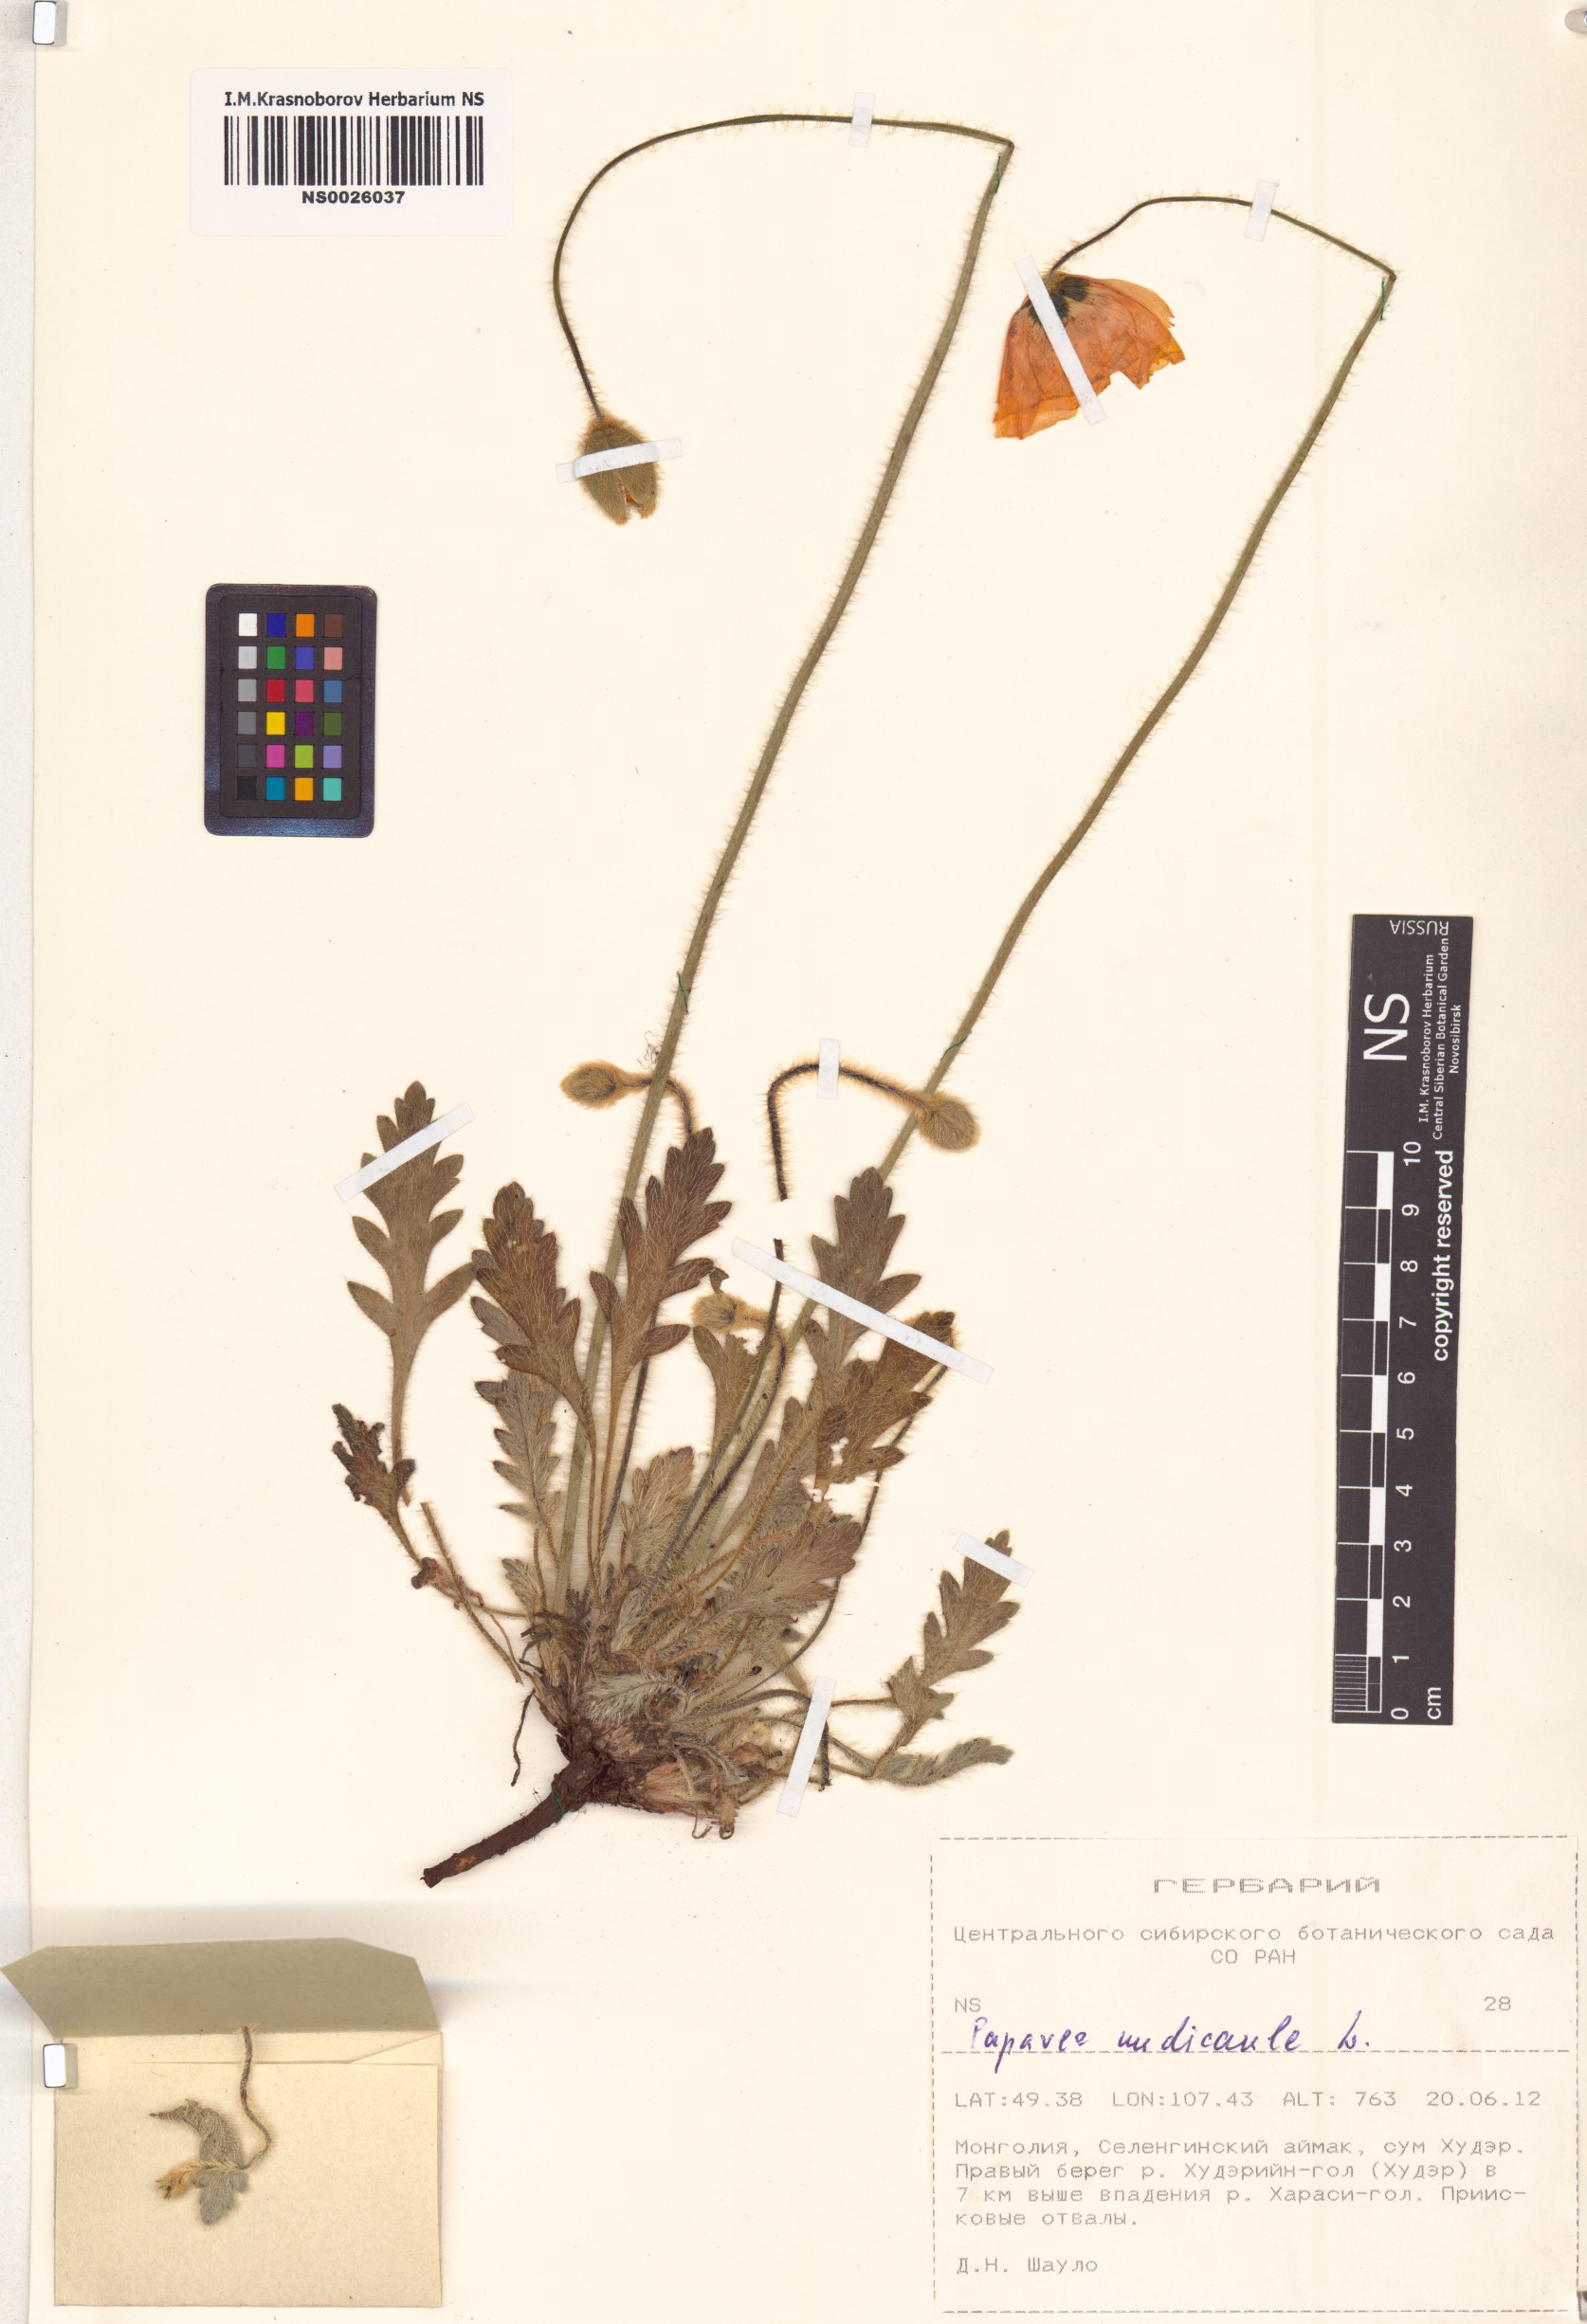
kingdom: Plantae
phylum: Tracheophyta
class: Magnoliopsida
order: Ranunculales
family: Papaveraceae
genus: Papaver
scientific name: Papaver nudicaule
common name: Arctic poppy
